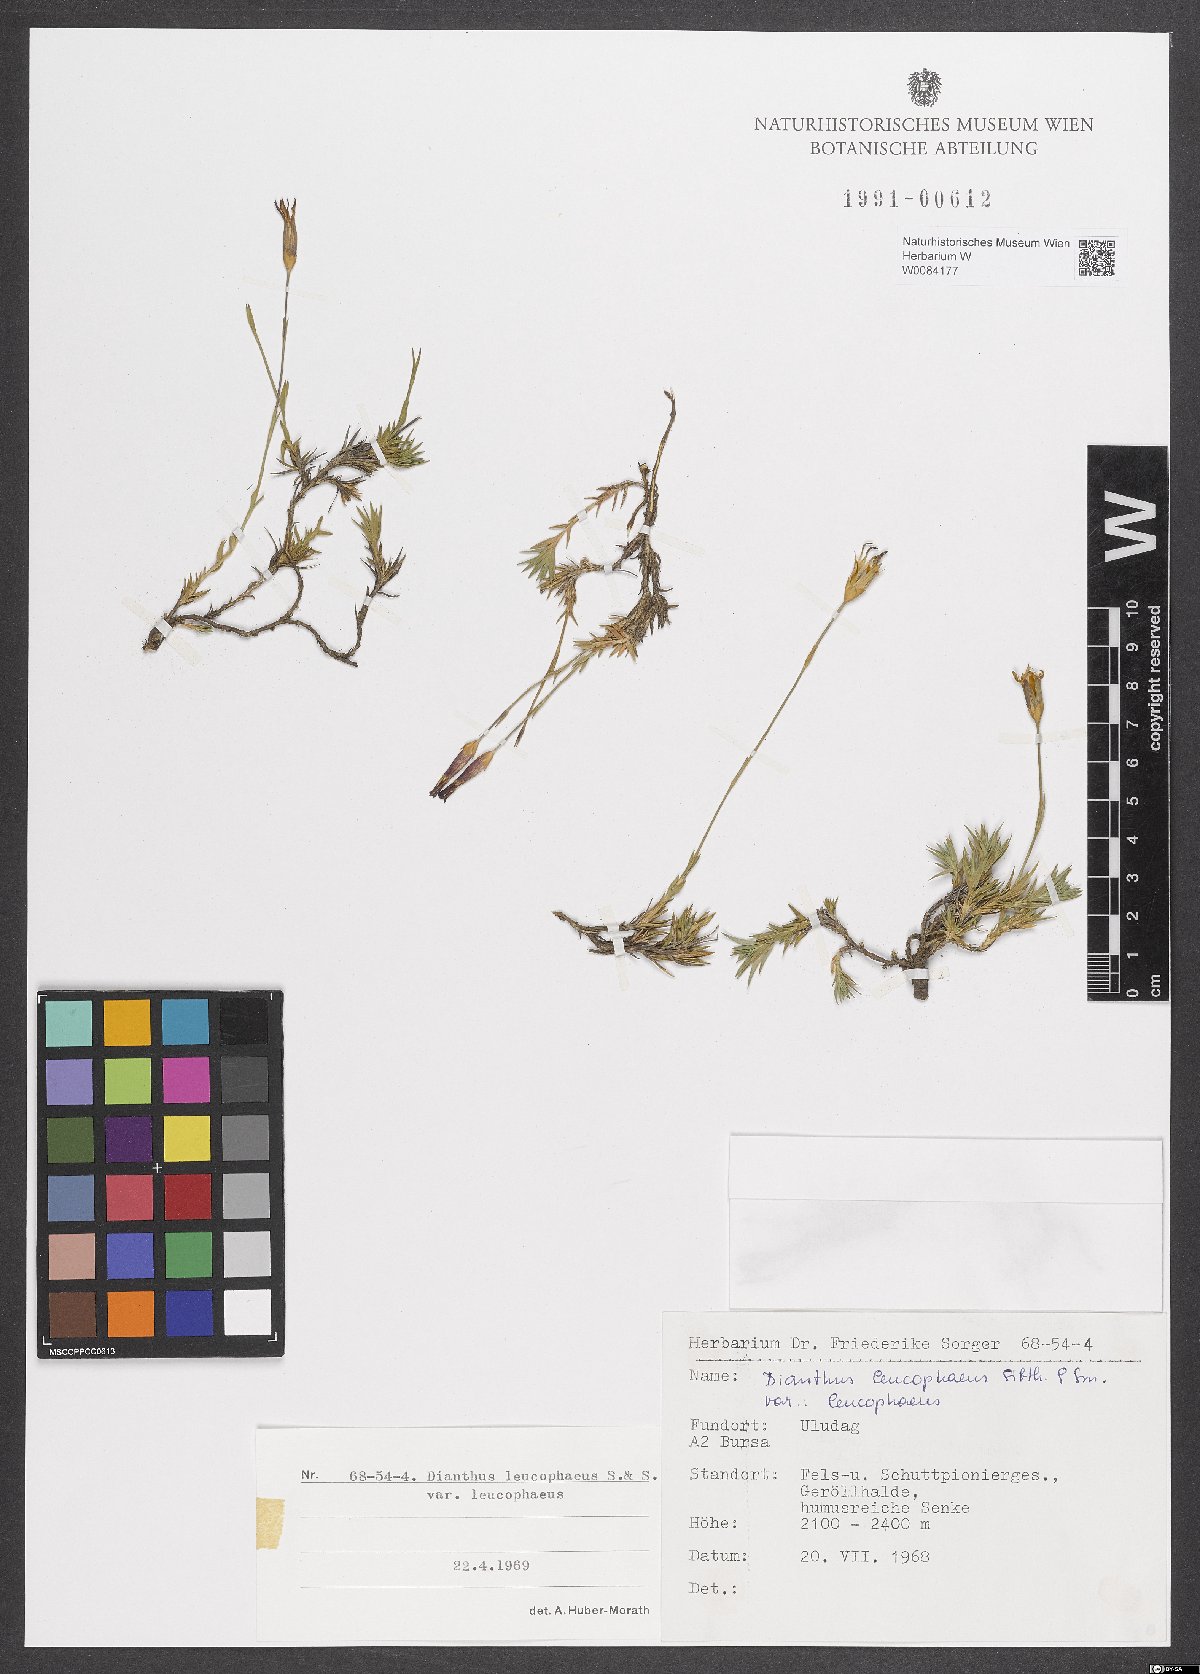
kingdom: Plantae
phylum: Tracheophyta
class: Magnoliopsida
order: Caryophyllales
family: Caryophyllaceae
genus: Dianthus
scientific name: Dianthus leucophaeus
